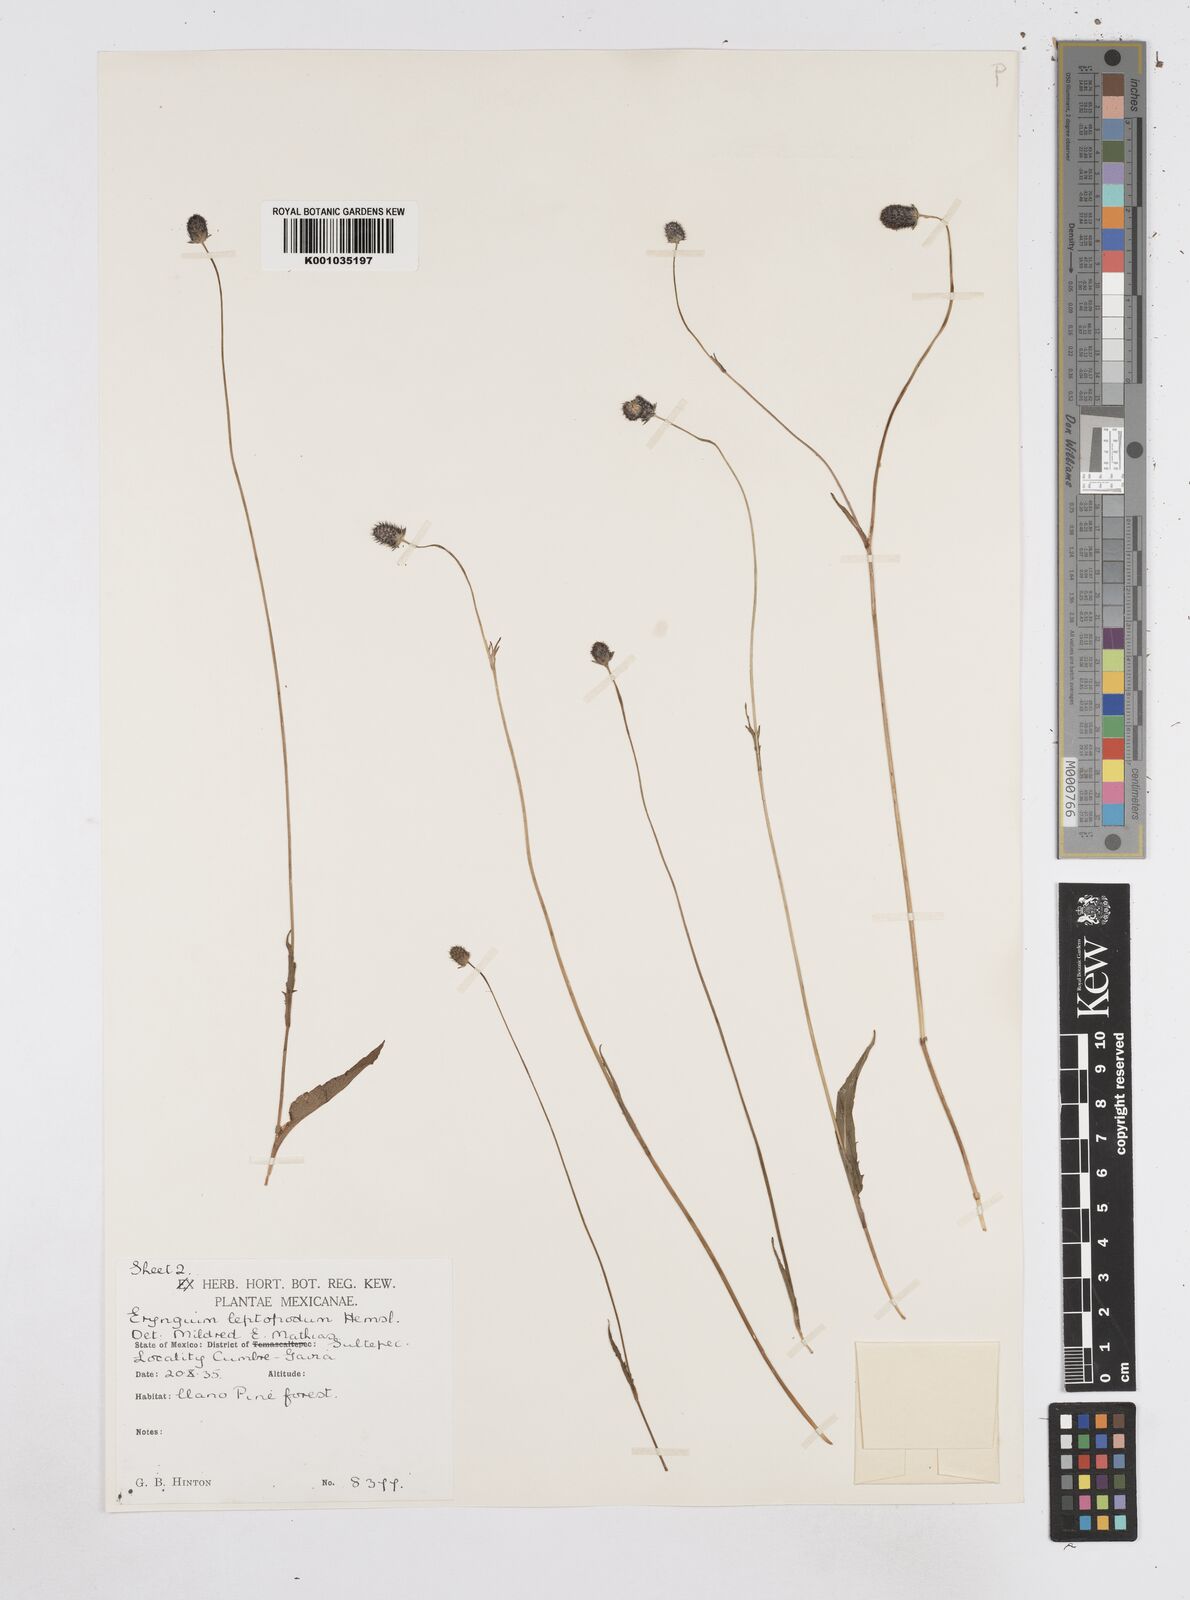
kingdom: Plantae
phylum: Tracheophyta
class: Magnoliopsida
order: Apiales
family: Apiaceae
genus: Eryngium
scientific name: Eryngium bonplandii
